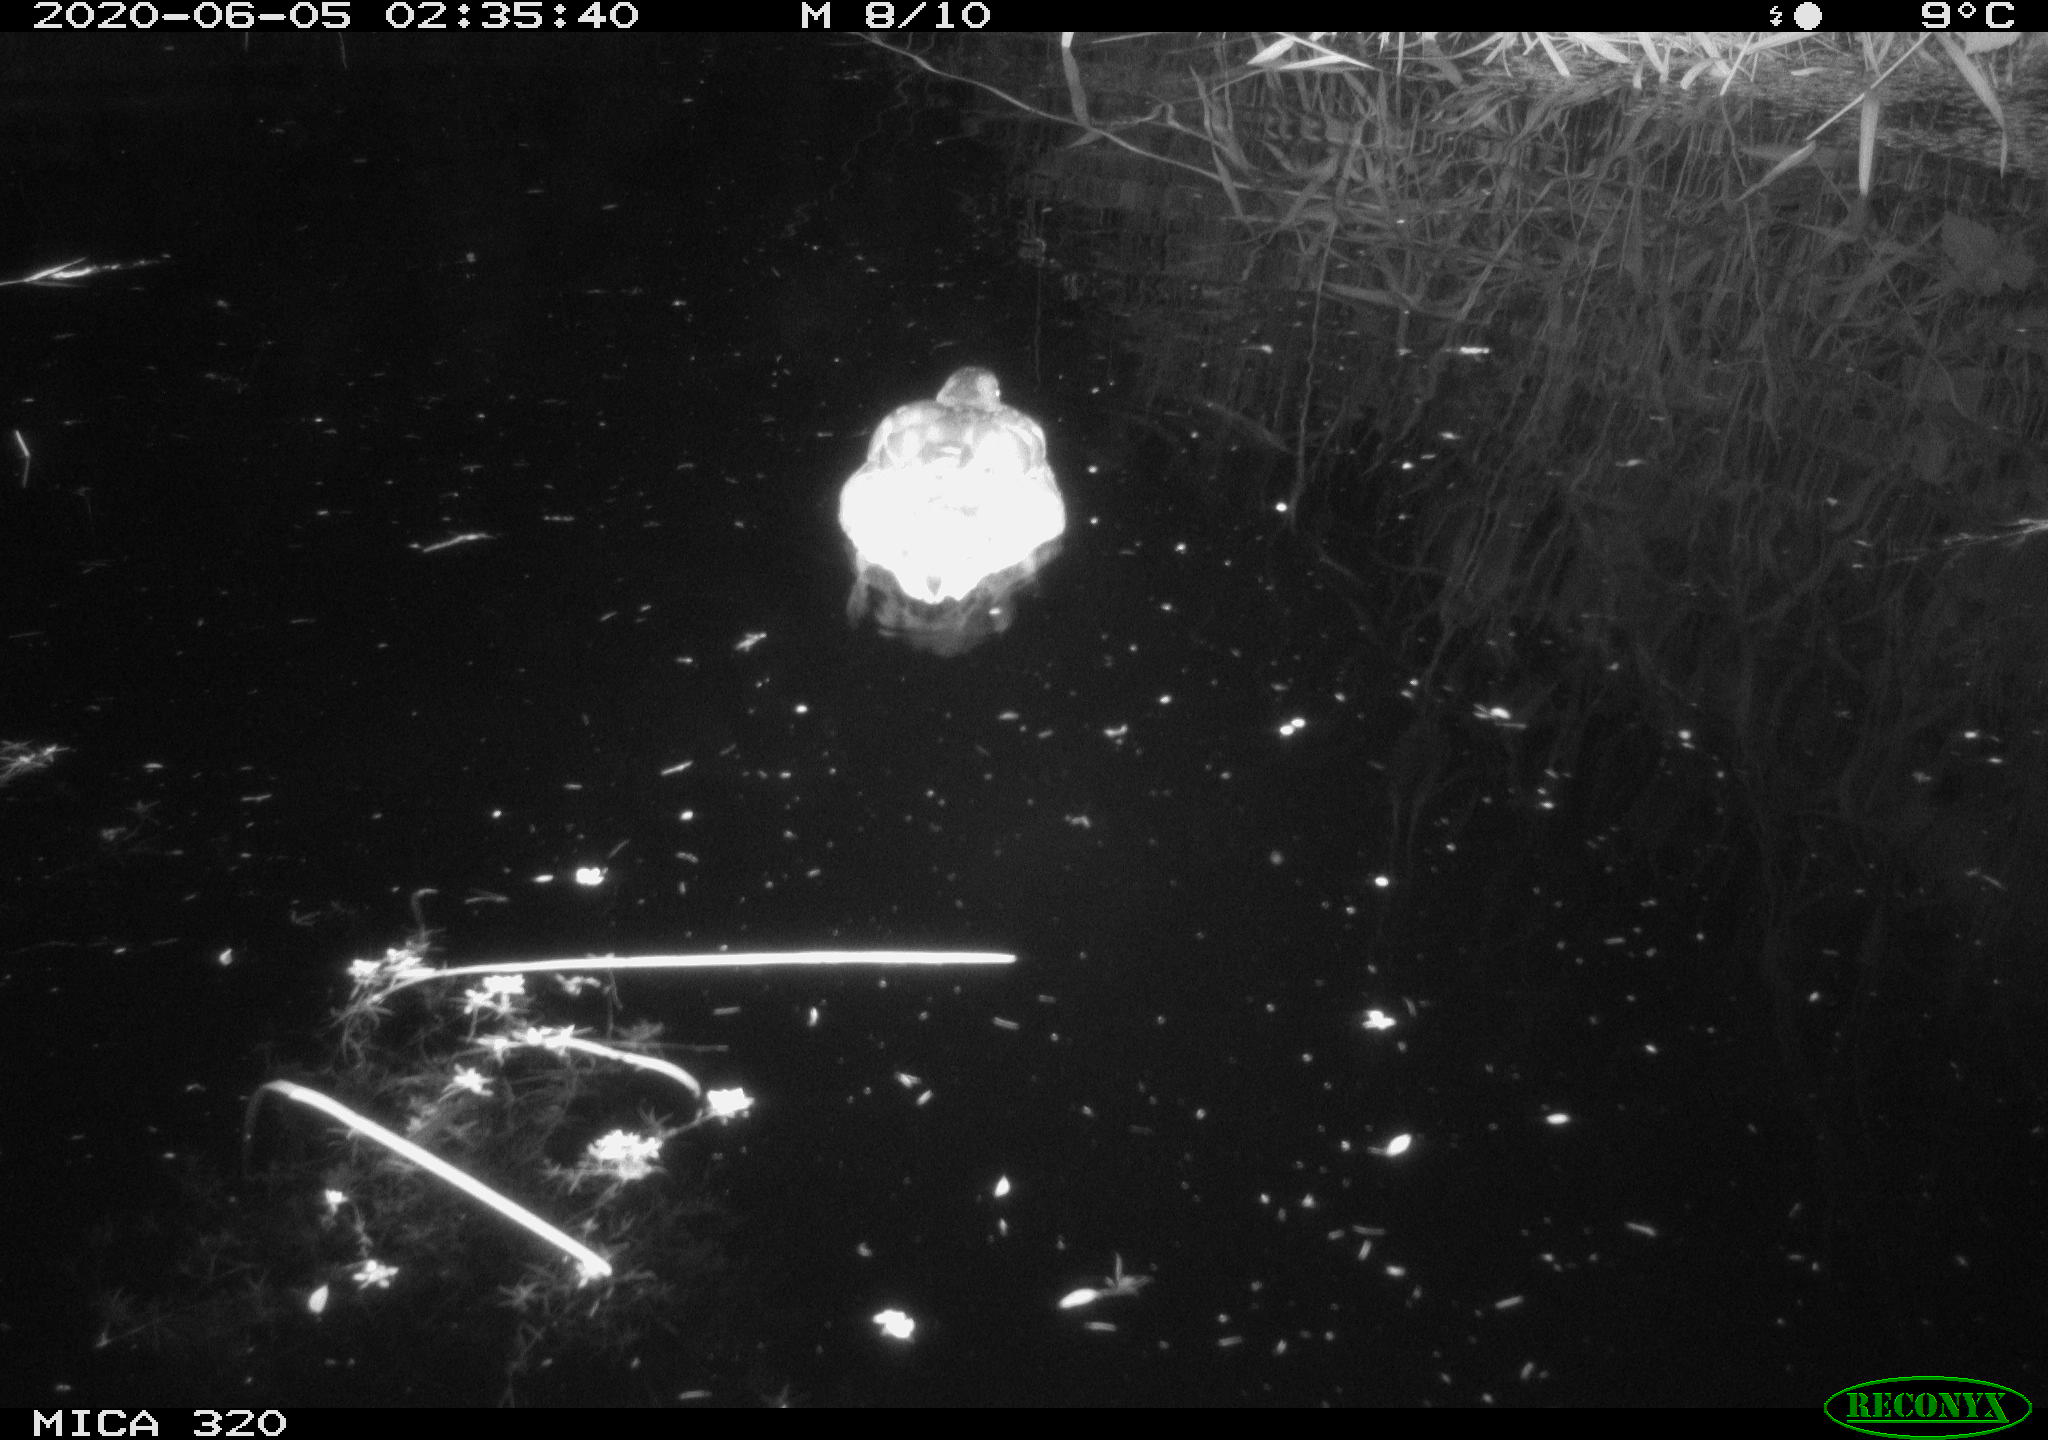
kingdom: Animalia
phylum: Chordata
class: Aves
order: Anseriformes
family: Anatidae
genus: Anas
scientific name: Anas platyrhynchos
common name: Mallard
